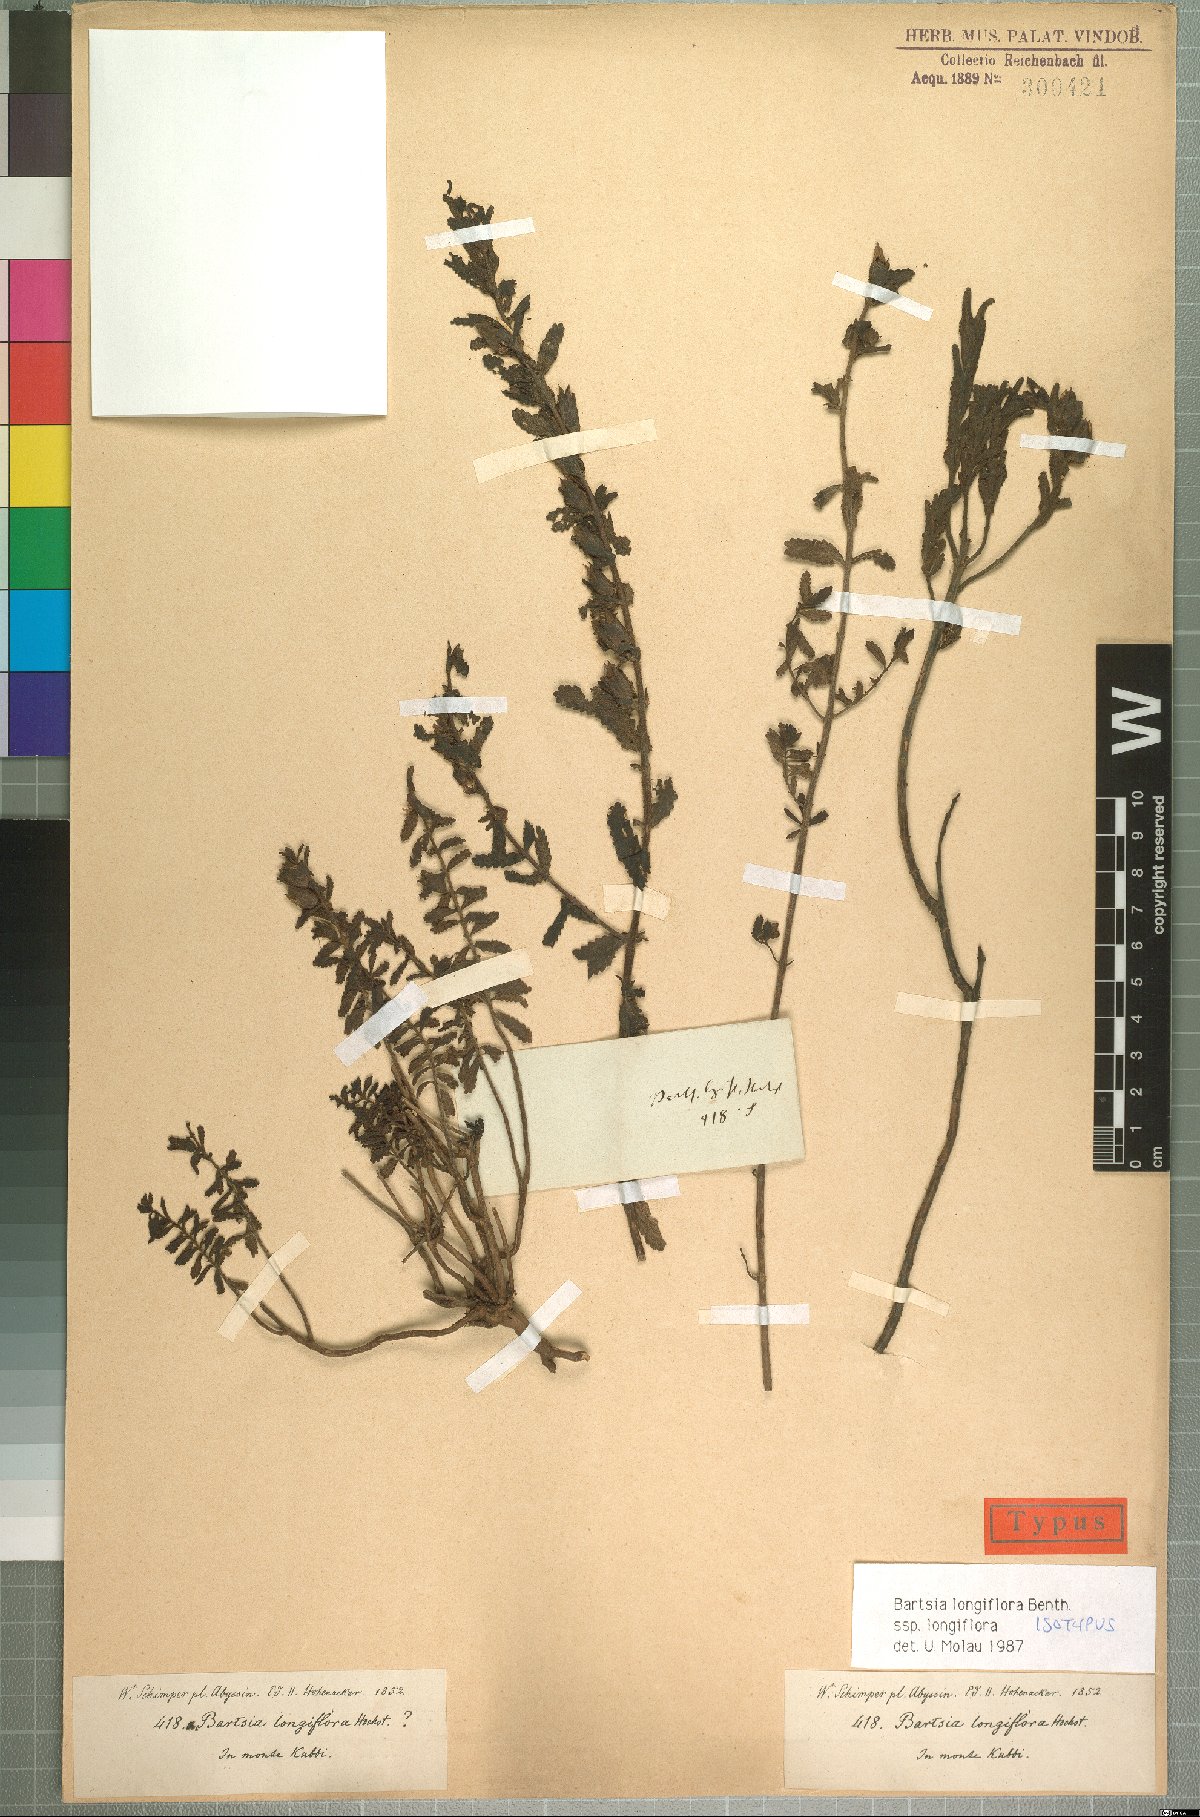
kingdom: Plantae
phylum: Tracheophyta
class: Magnoliopsida
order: Lamiales
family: Orobanchaceae
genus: Hedbergia
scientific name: Hedbergia longiflora
